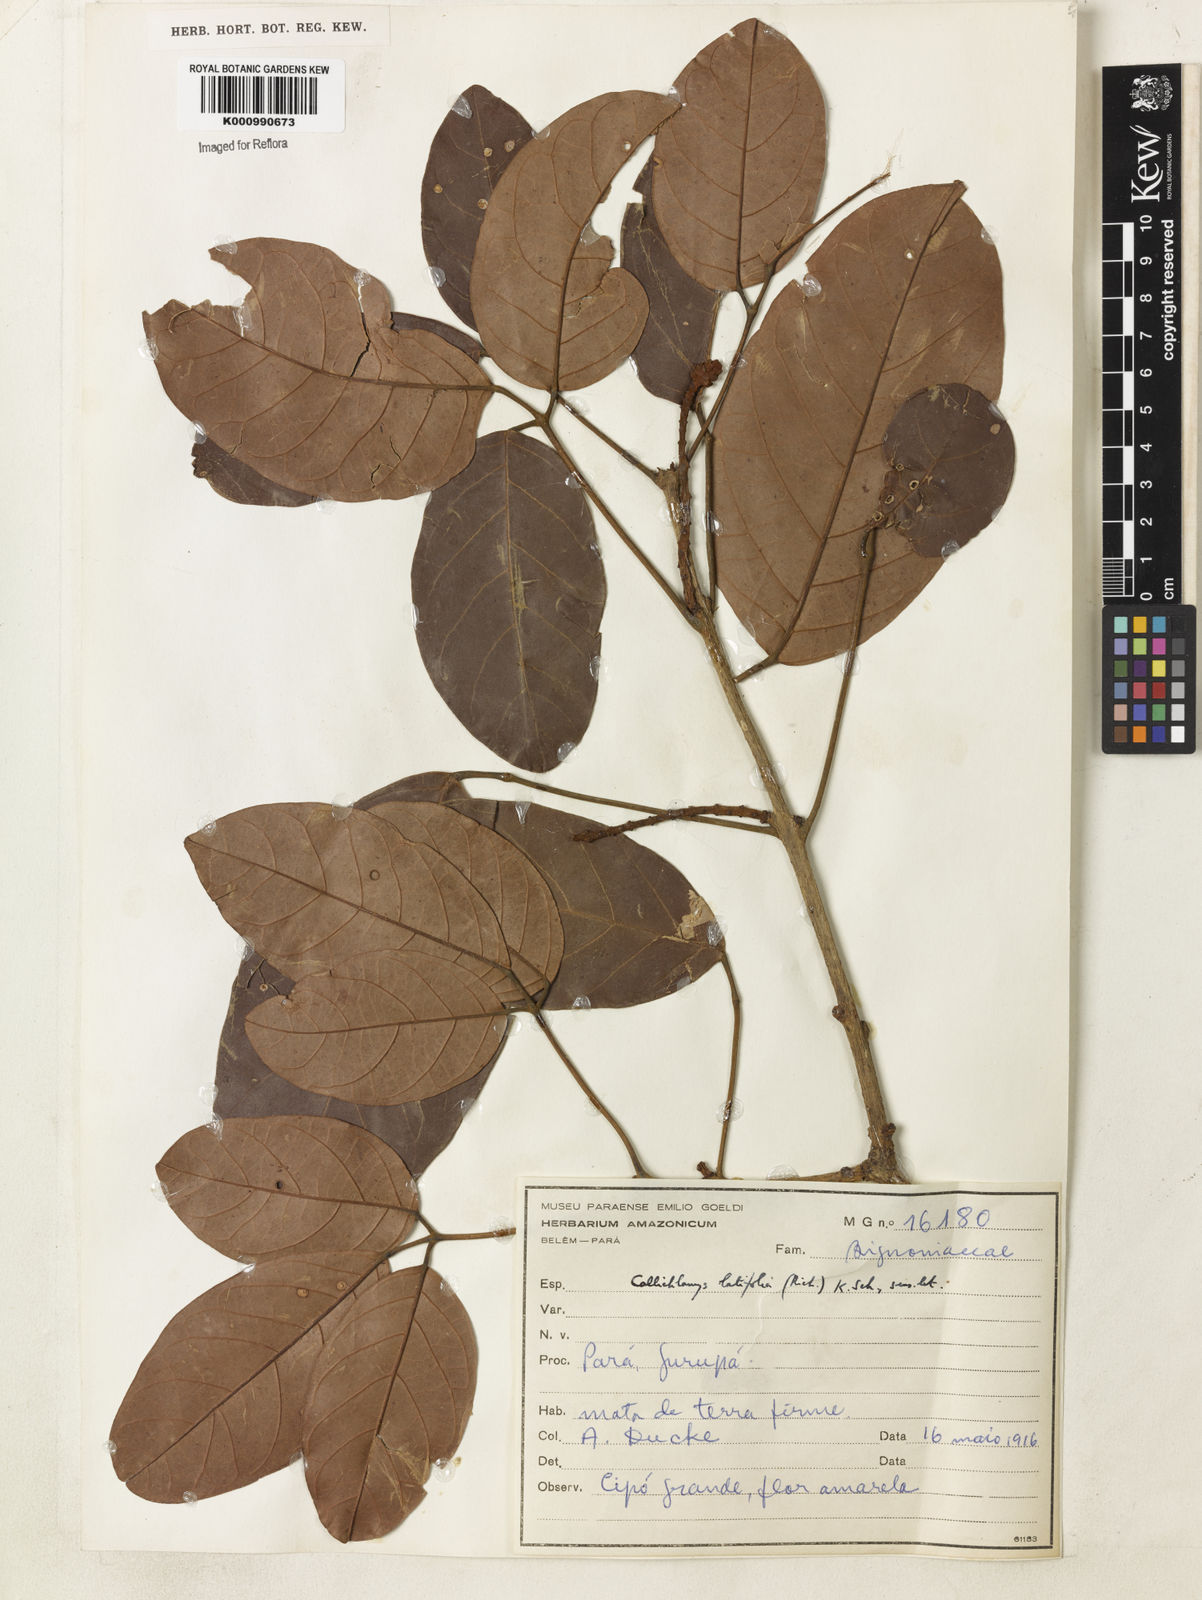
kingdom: Plantae
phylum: Tracheophyta
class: Magnoliopsida
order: Lamiales
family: Bignoniaceae
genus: Callichlamys
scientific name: Callichlamys latifolia
